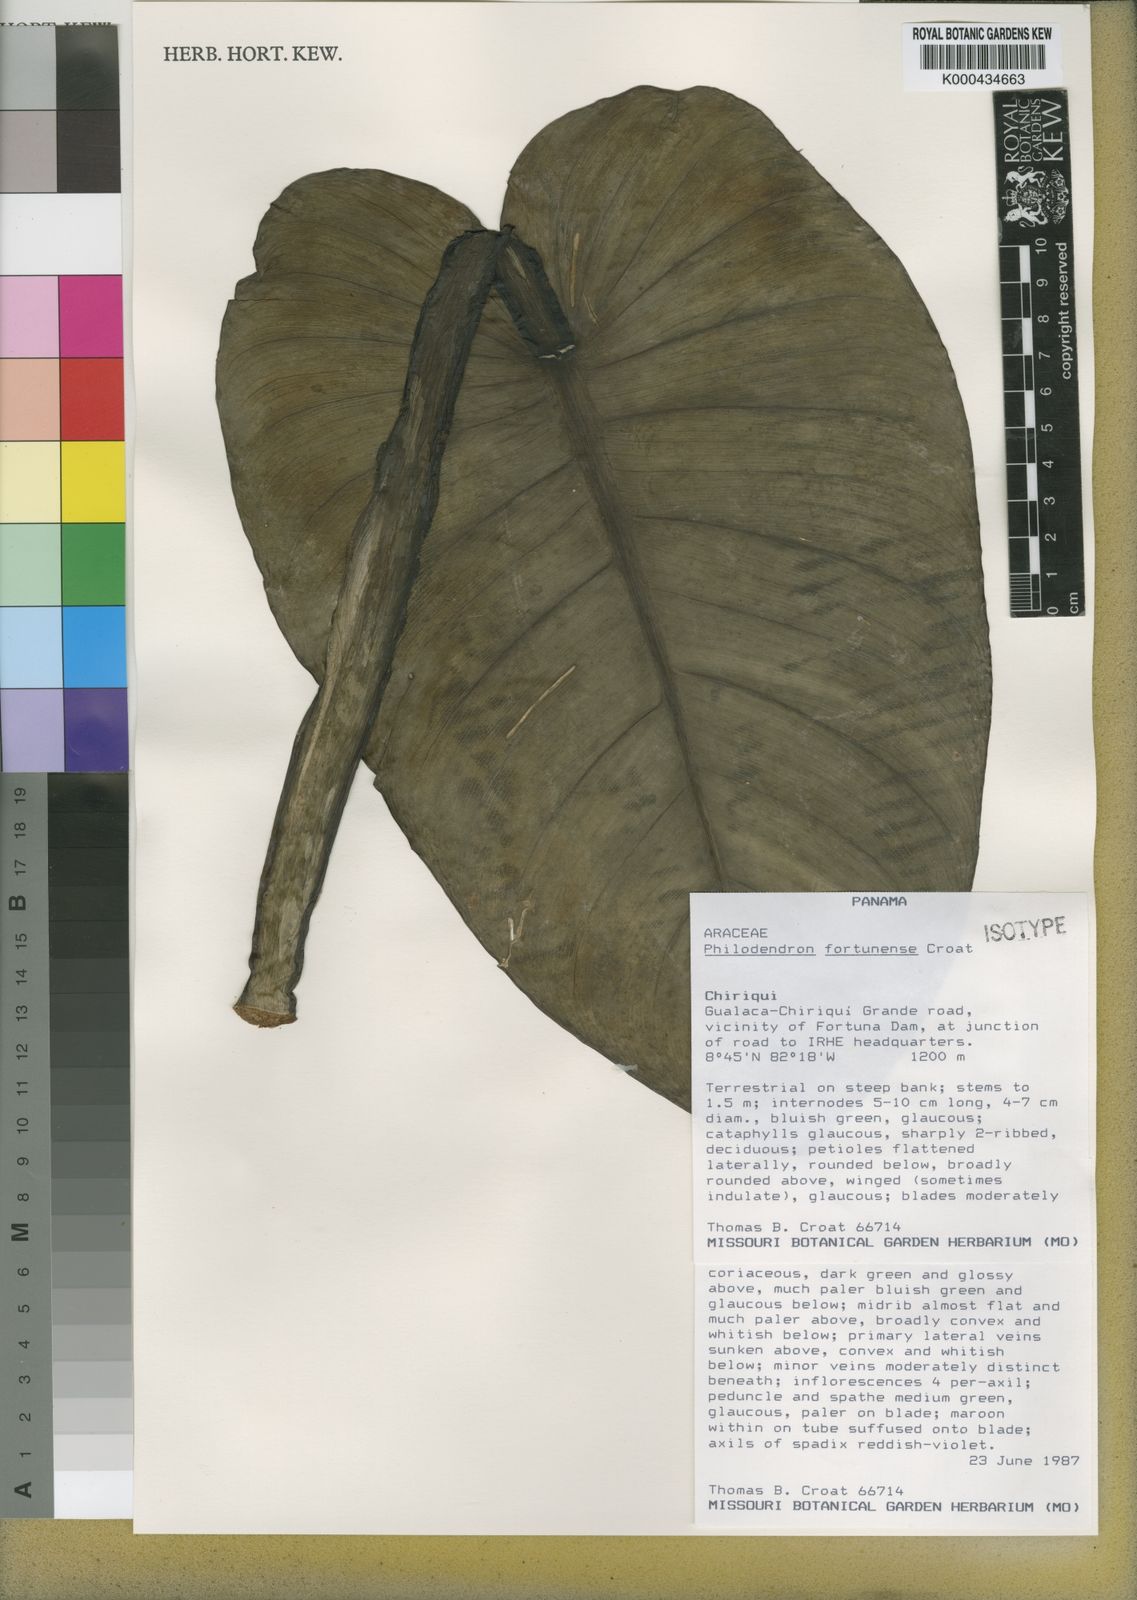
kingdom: Plantae
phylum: Tracheophyta
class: Liliopsida
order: Alismatales
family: Araceae
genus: Philodendron
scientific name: Philodendron fortunense
